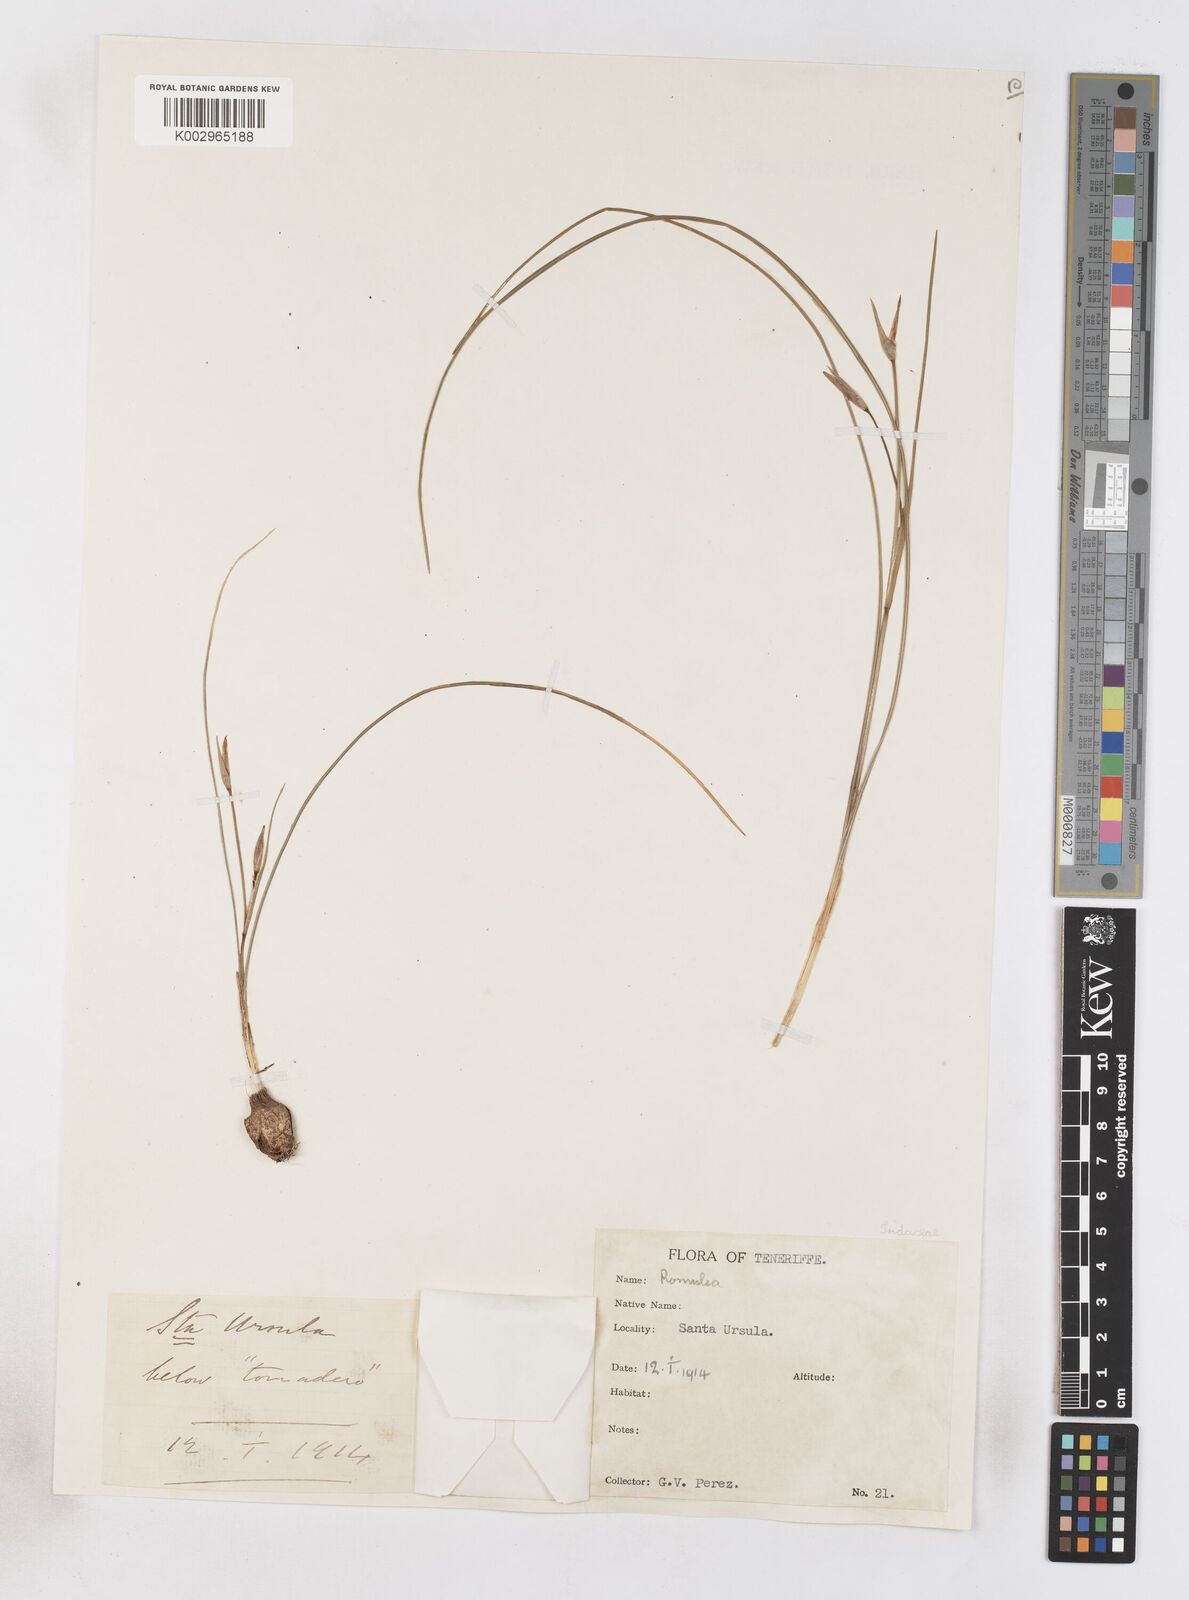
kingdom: Plantae
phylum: Tracheophyta
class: Liliopsida
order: Asparagales
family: Iridaceae
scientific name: Iridaceae
